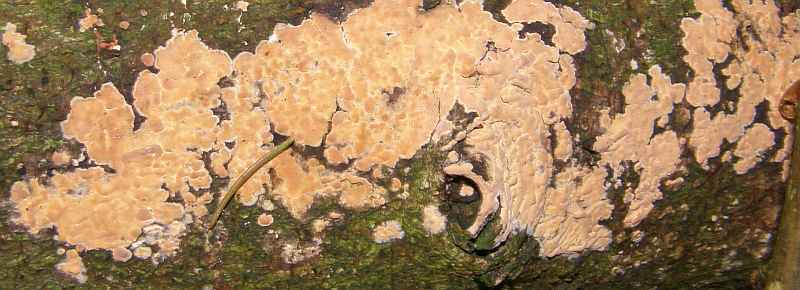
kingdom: Fungi
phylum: Basidiomycota
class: Agaricomycetes
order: Russulales
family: Peniophoraceae
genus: Peniophora
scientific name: Peniophora incarnata
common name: laksefarvet voksskind
